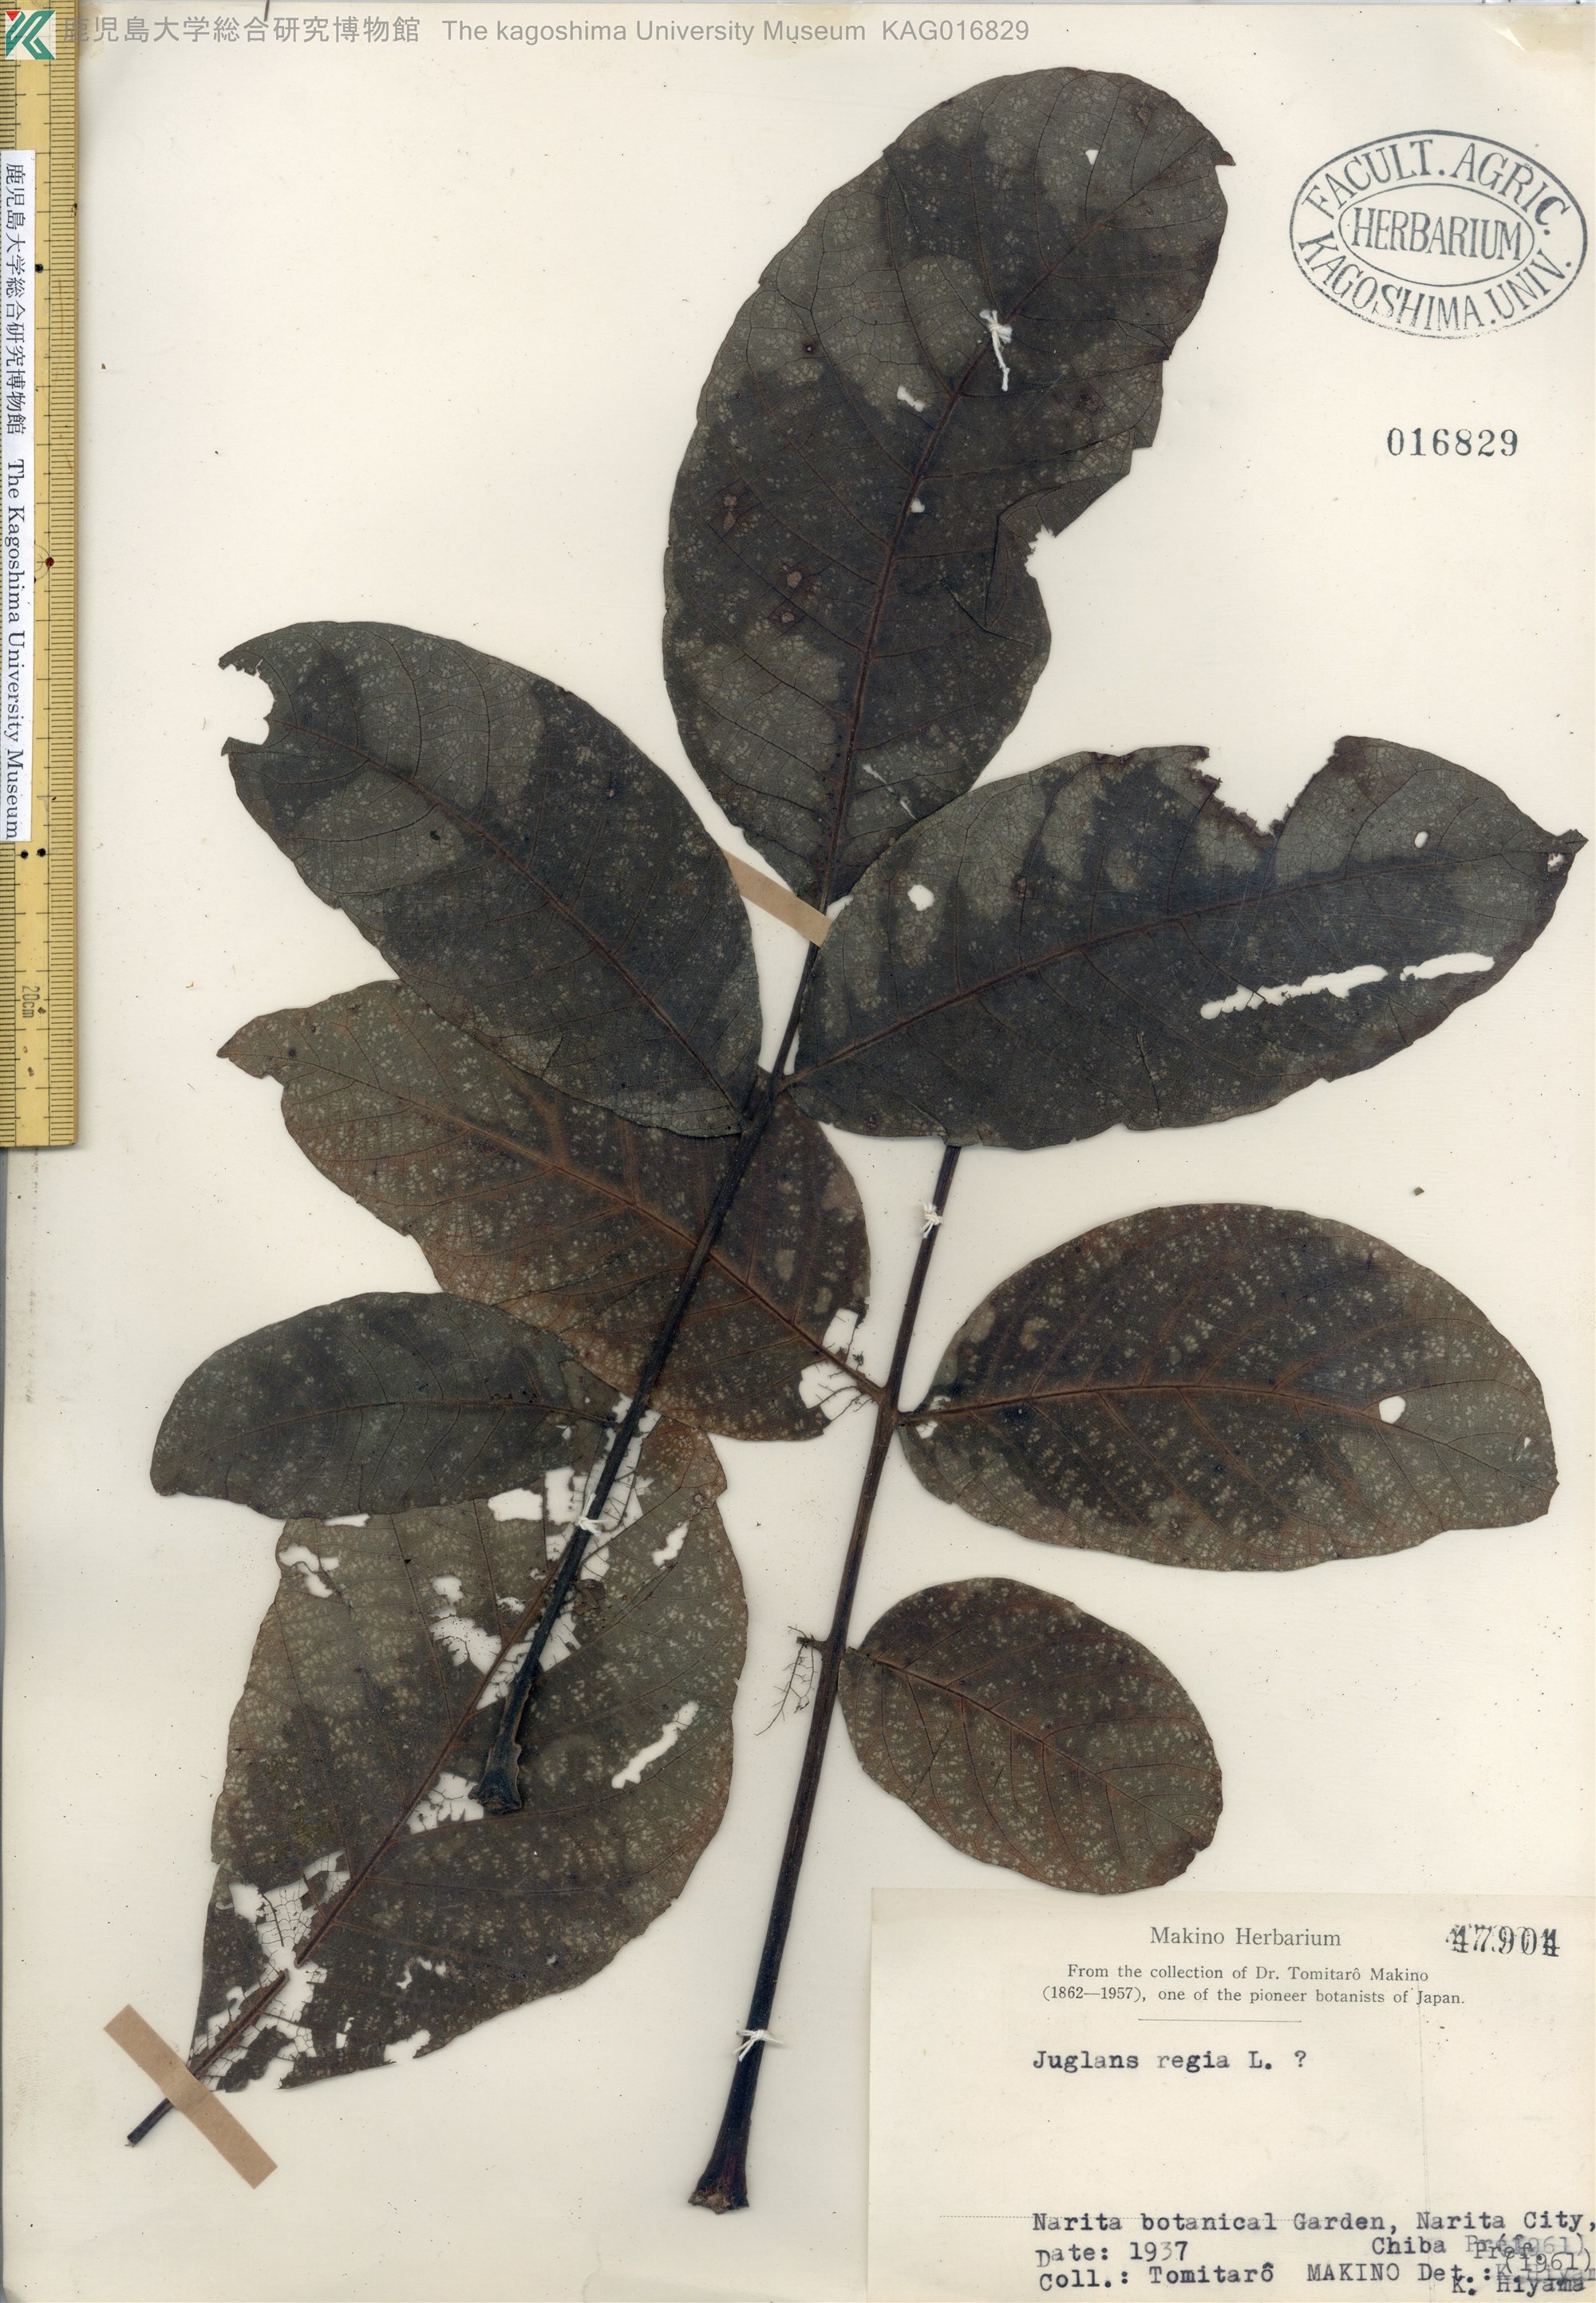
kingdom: Plantae
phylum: Tracheophyta
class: Magnoliopsida
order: Fagales
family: Juglandaceae
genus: Juglans
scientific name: Juglans regia
